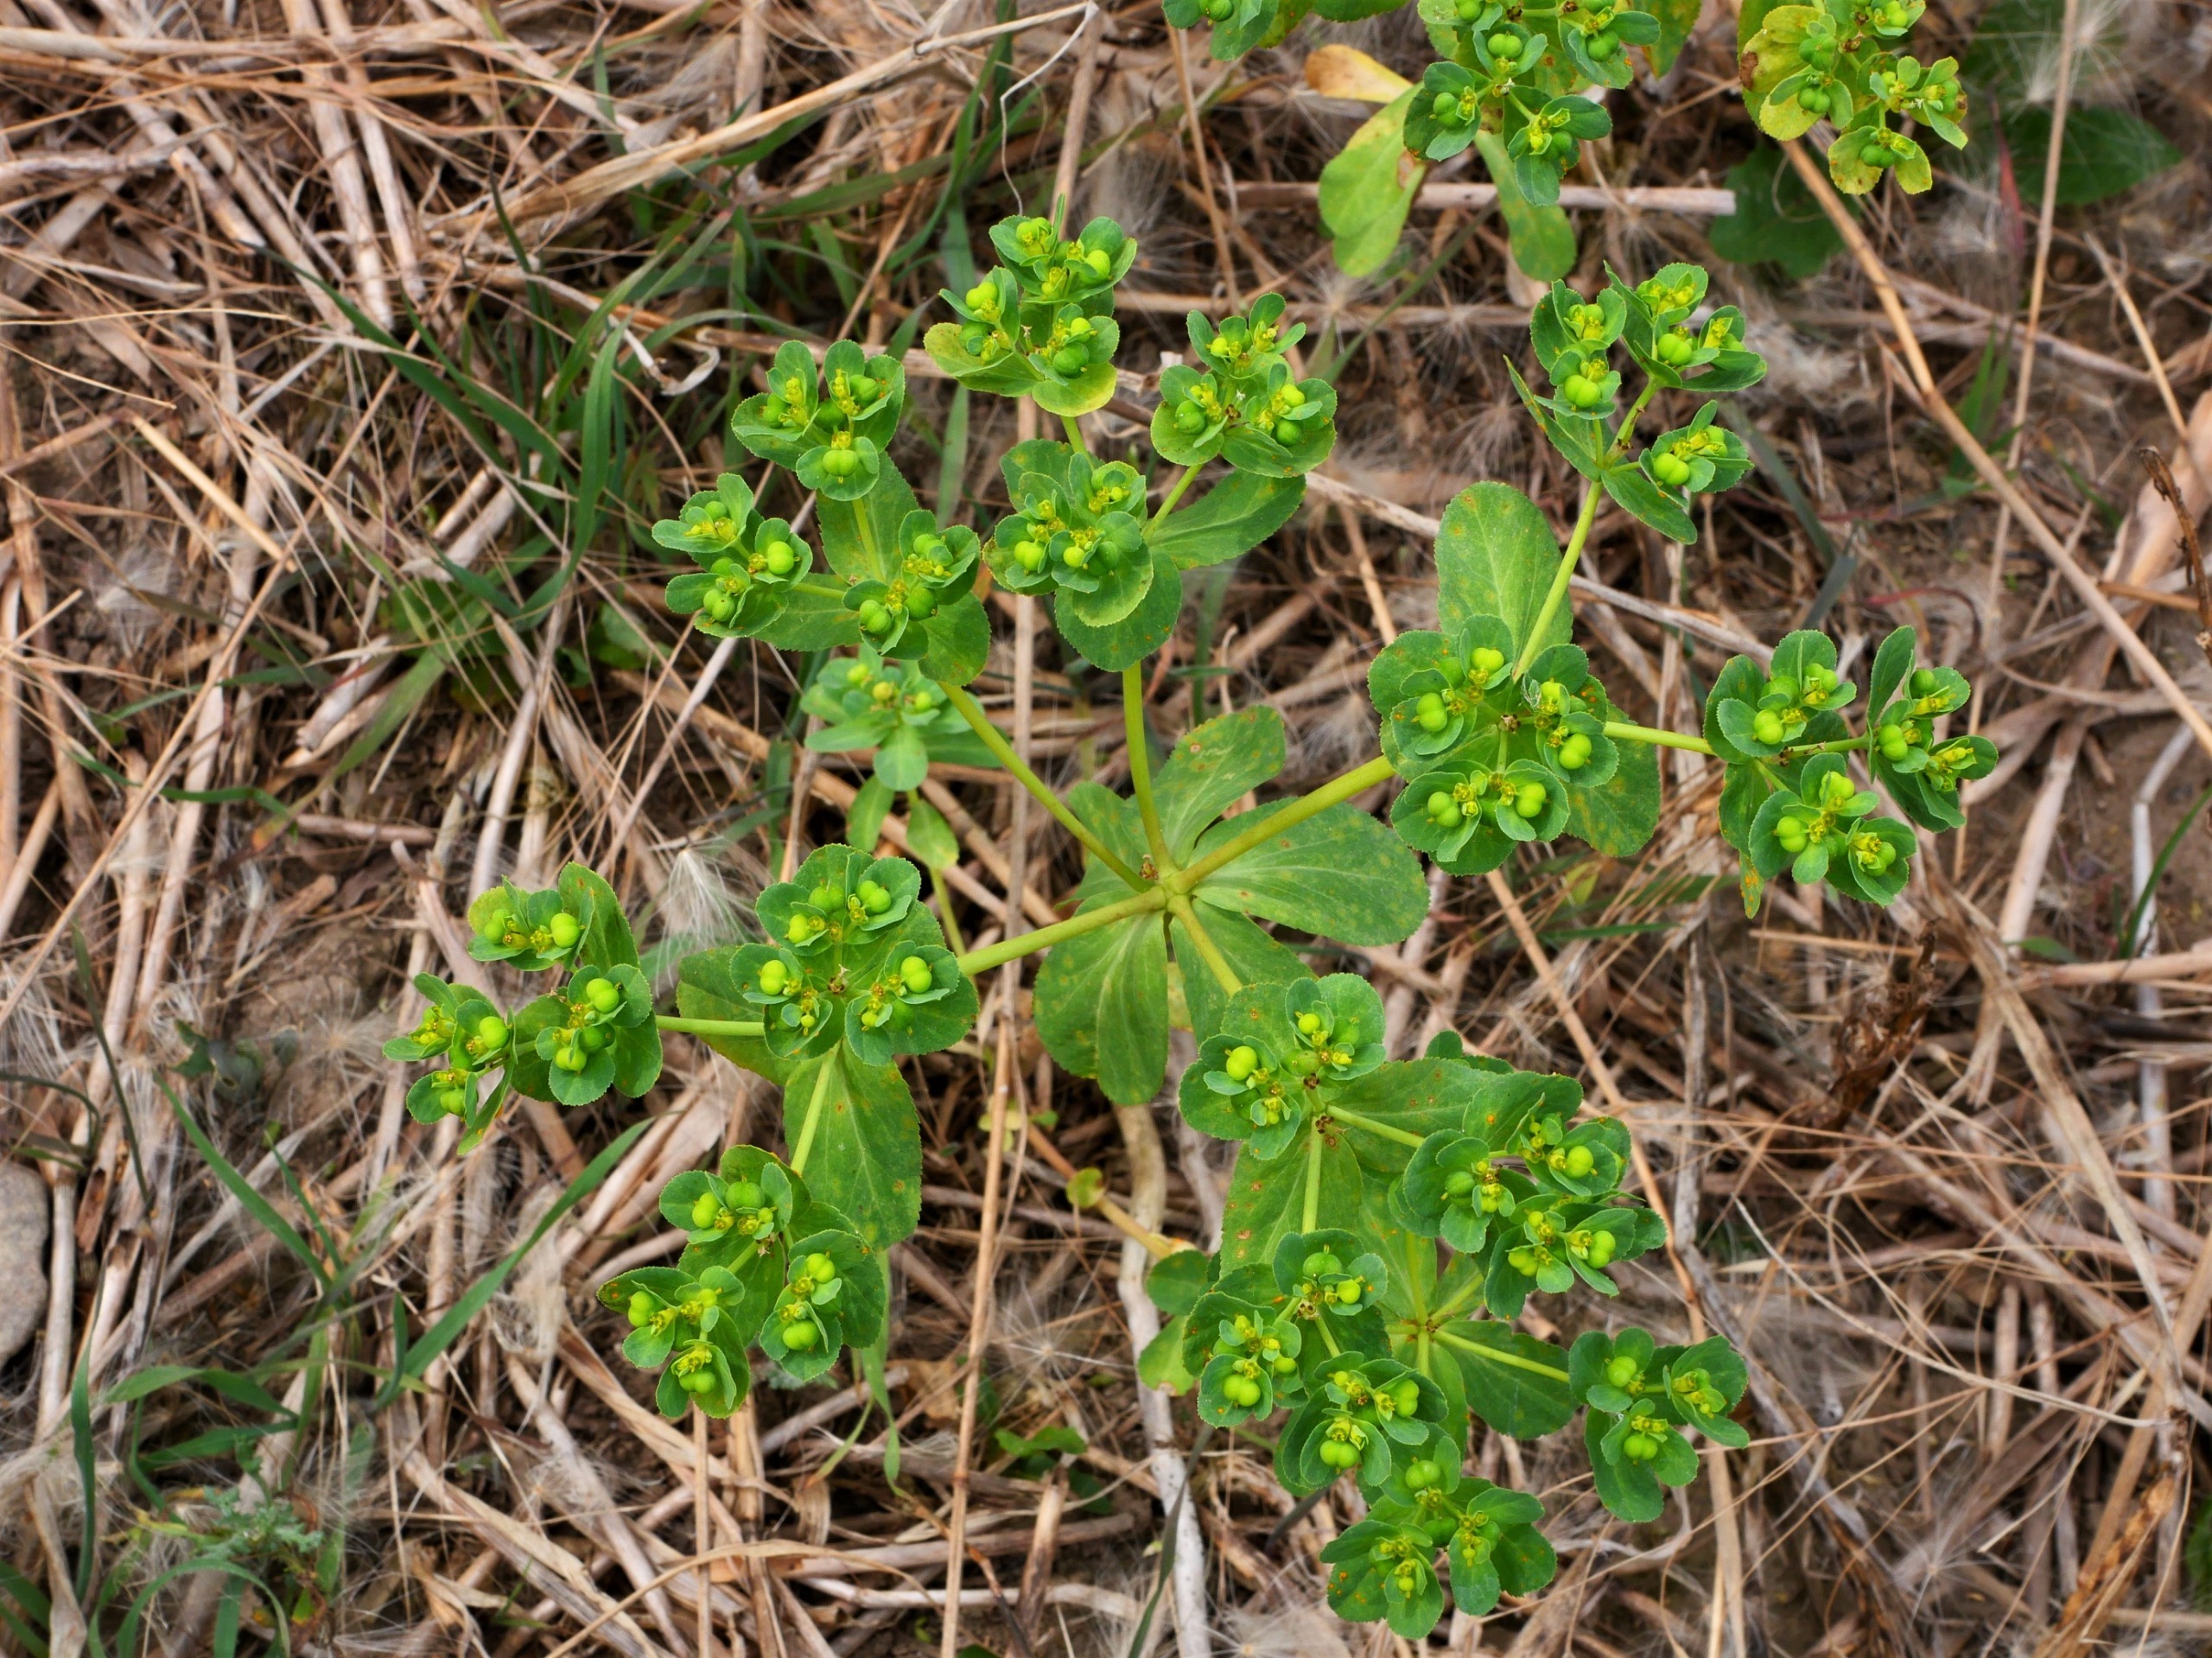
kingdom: Plantae
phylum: Tracheophyta
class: Magnoliopsida
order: Malpighiales
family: Euphorbiaceae
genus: Euphorbia
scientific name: Euphorbia helioscopia
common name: Skærm-vortemælk
